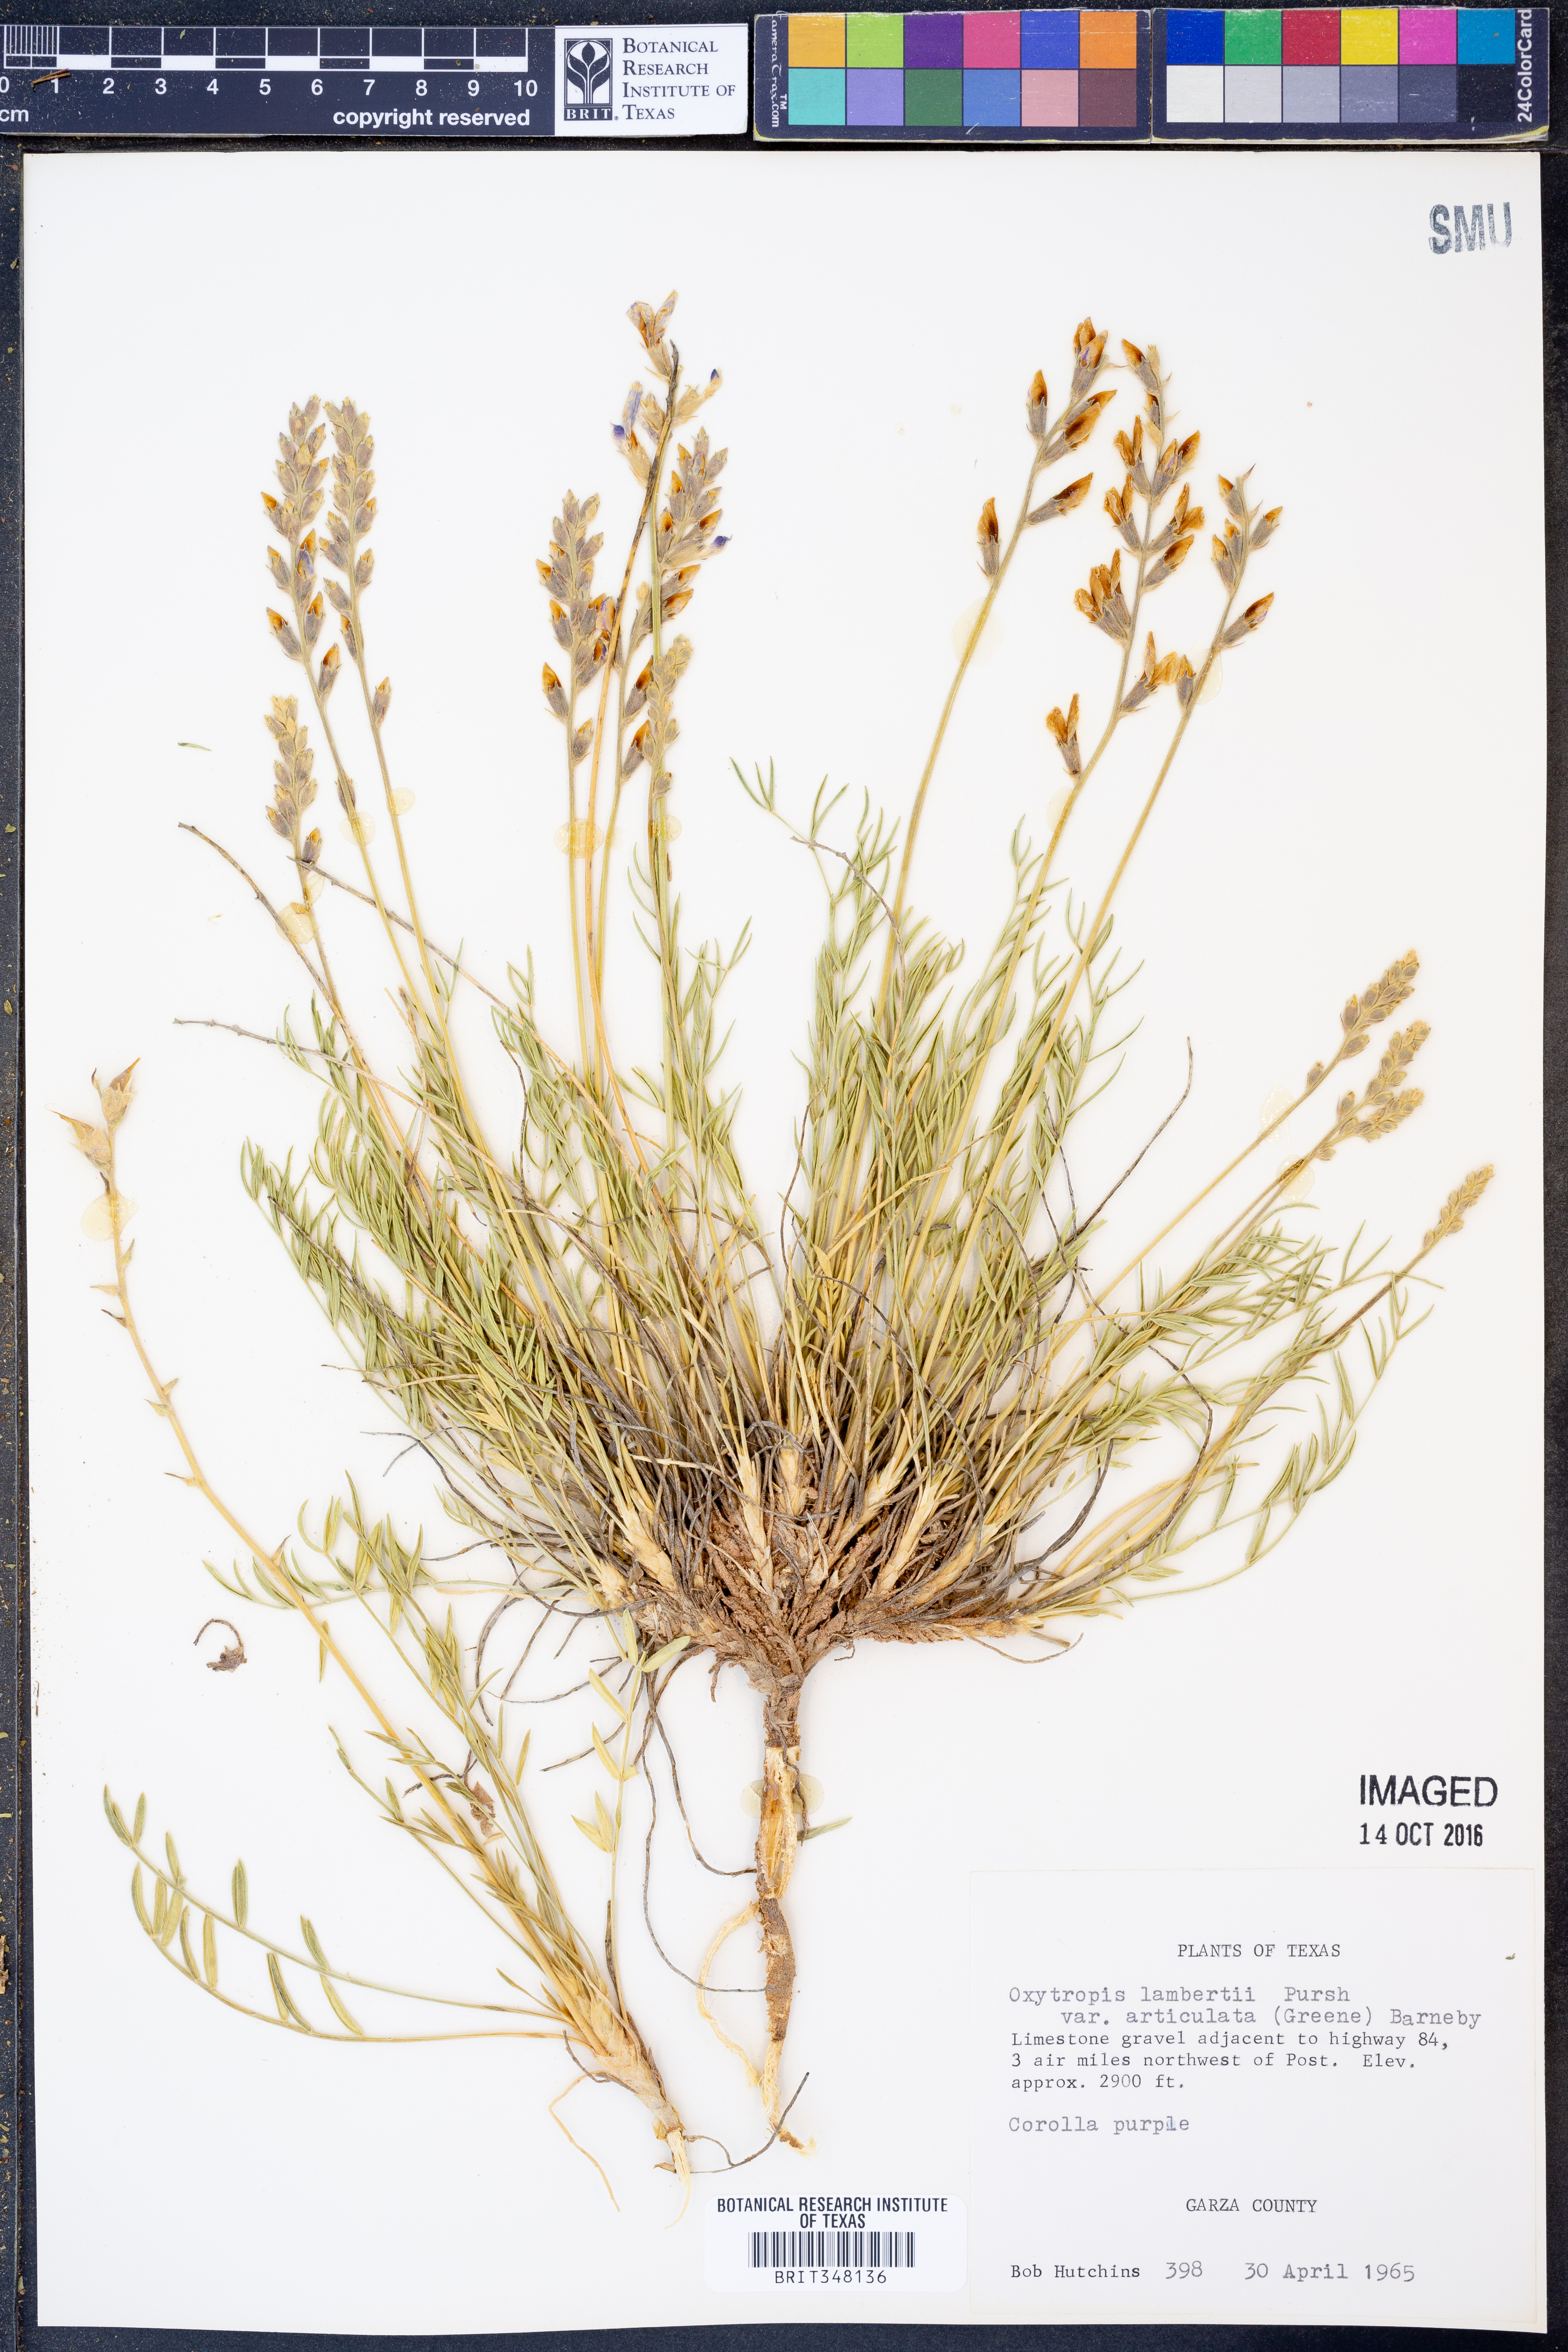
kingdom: Plantae
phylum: Tracheophyta
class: Magnoliopsida
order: Fabales
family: Fabaceae
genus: Oxytropis
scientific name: Oxytropis lambertii
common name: Purple locoweed
